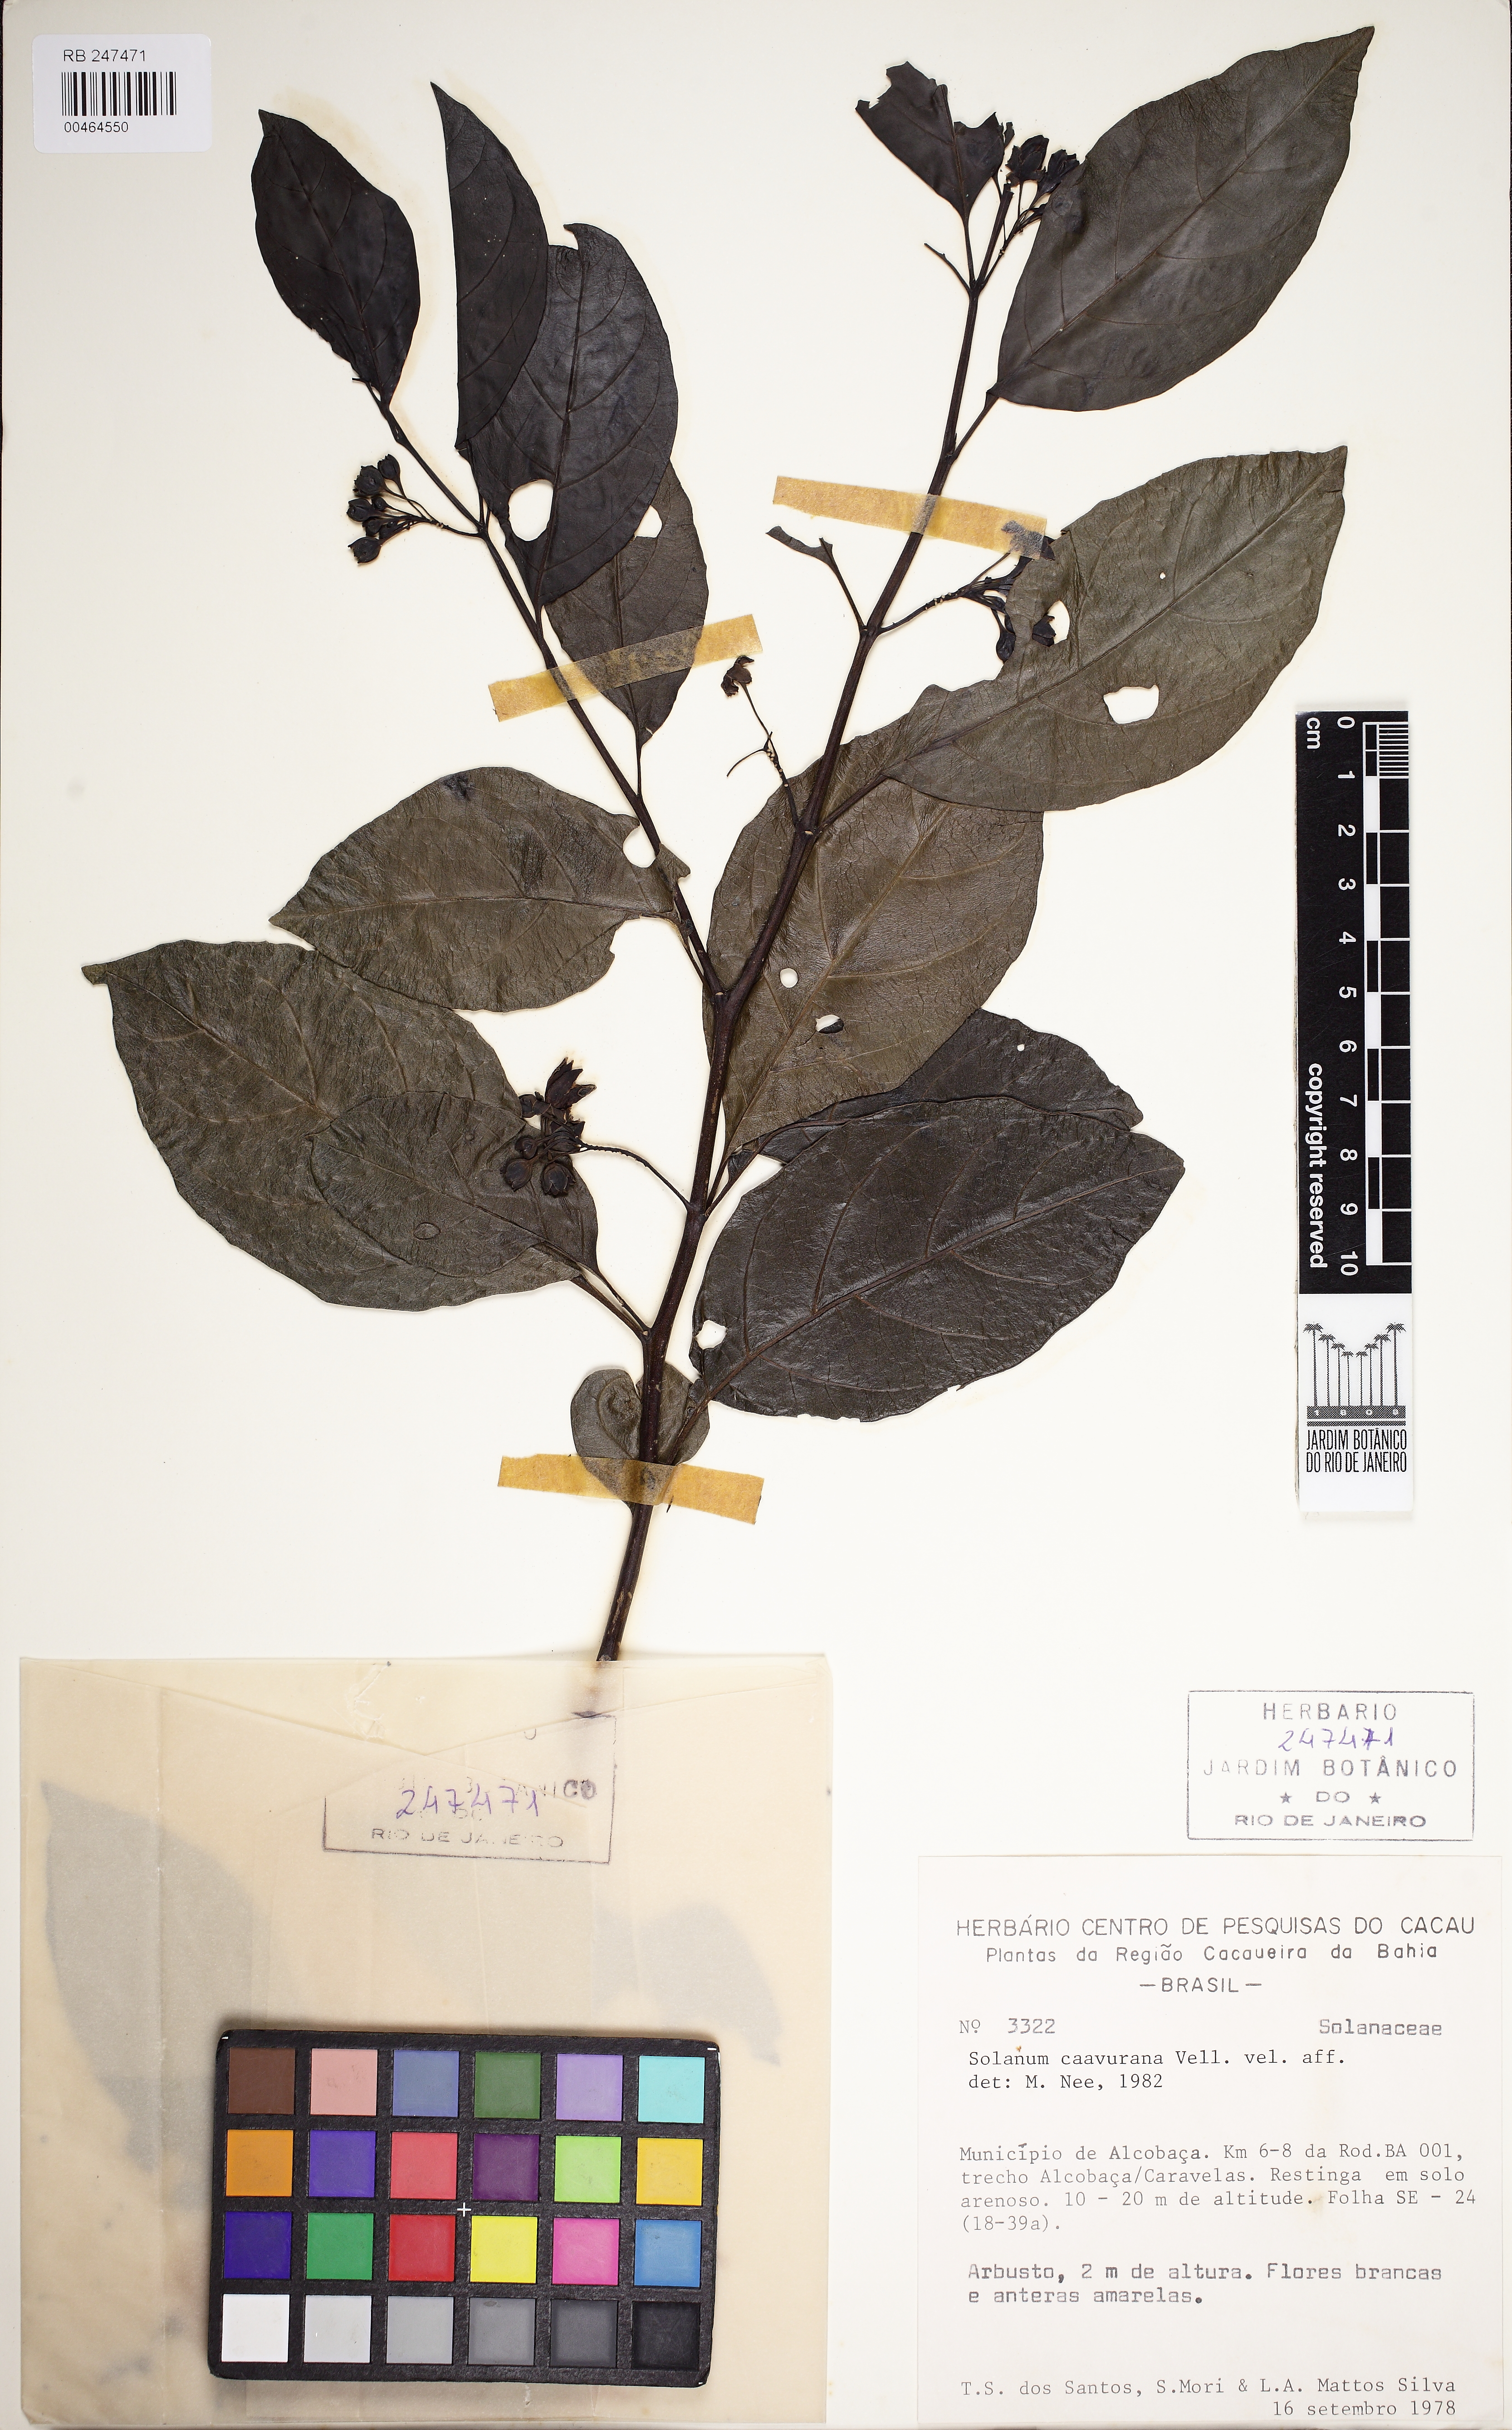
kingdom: Plantae
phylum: Tracheophyta
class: Magnoliopsida
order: Solanales
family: Solanaceae
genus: Solanum
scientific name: Solanum caavurana
